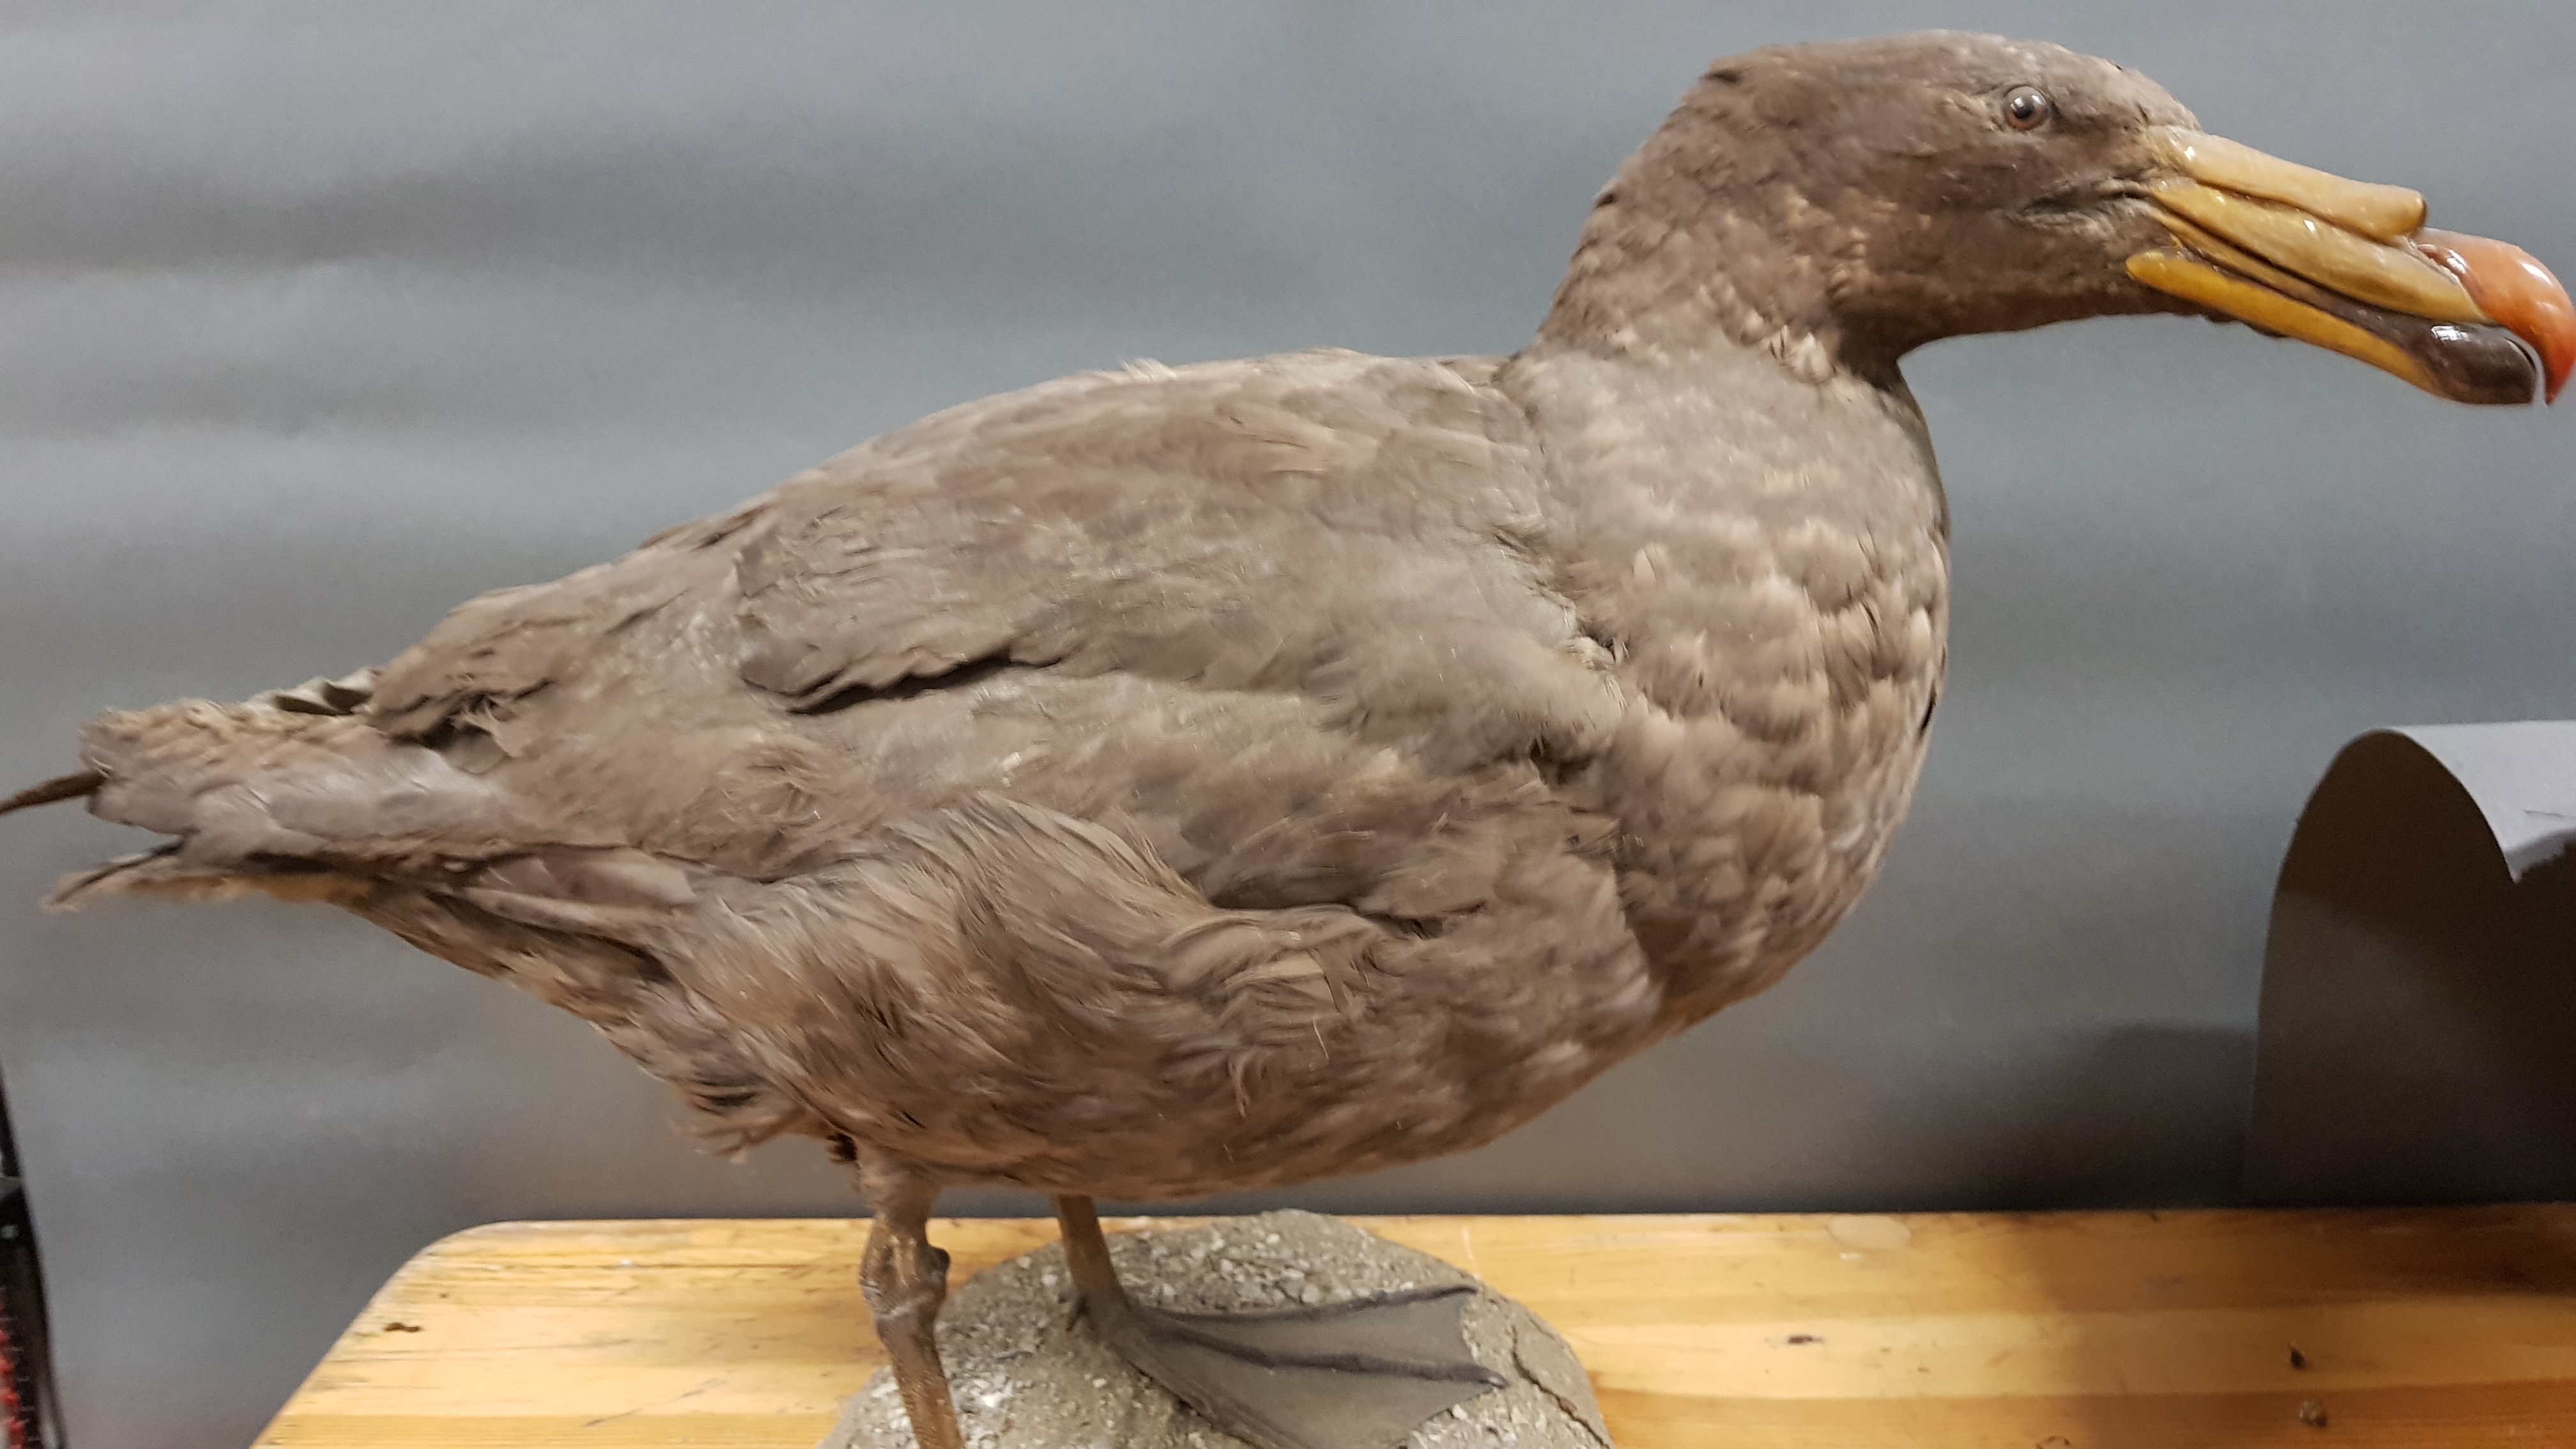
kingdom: Animalia
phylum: Chordata
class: Aves
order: Procellariiformes
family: Procellariidae
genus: Macronectes
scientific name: Macronectes halli
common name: Northern giant petrel
